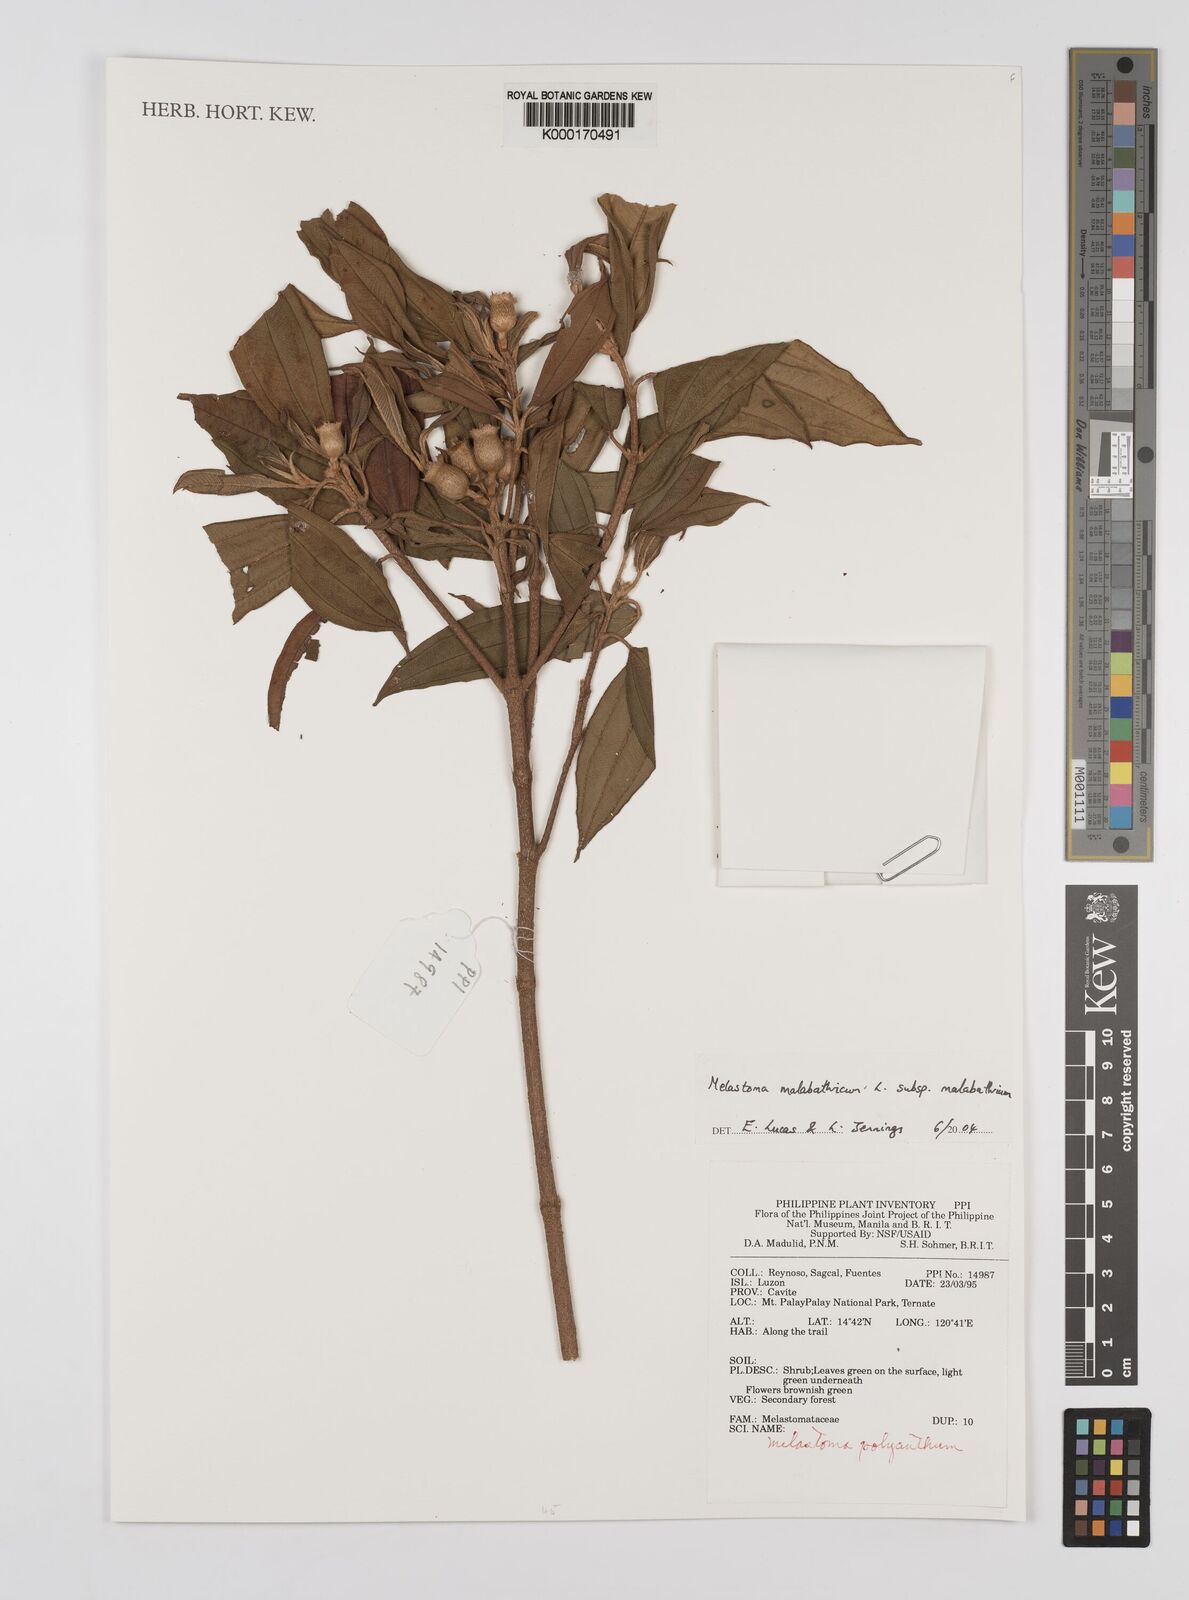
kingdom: Plantae
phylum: Tracheophyta
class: Magnoliopsida
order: Myrtales
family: Melastomataceae
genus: Melastoma
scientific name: Melastoma malabathricum
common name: Indian-rhododendron
